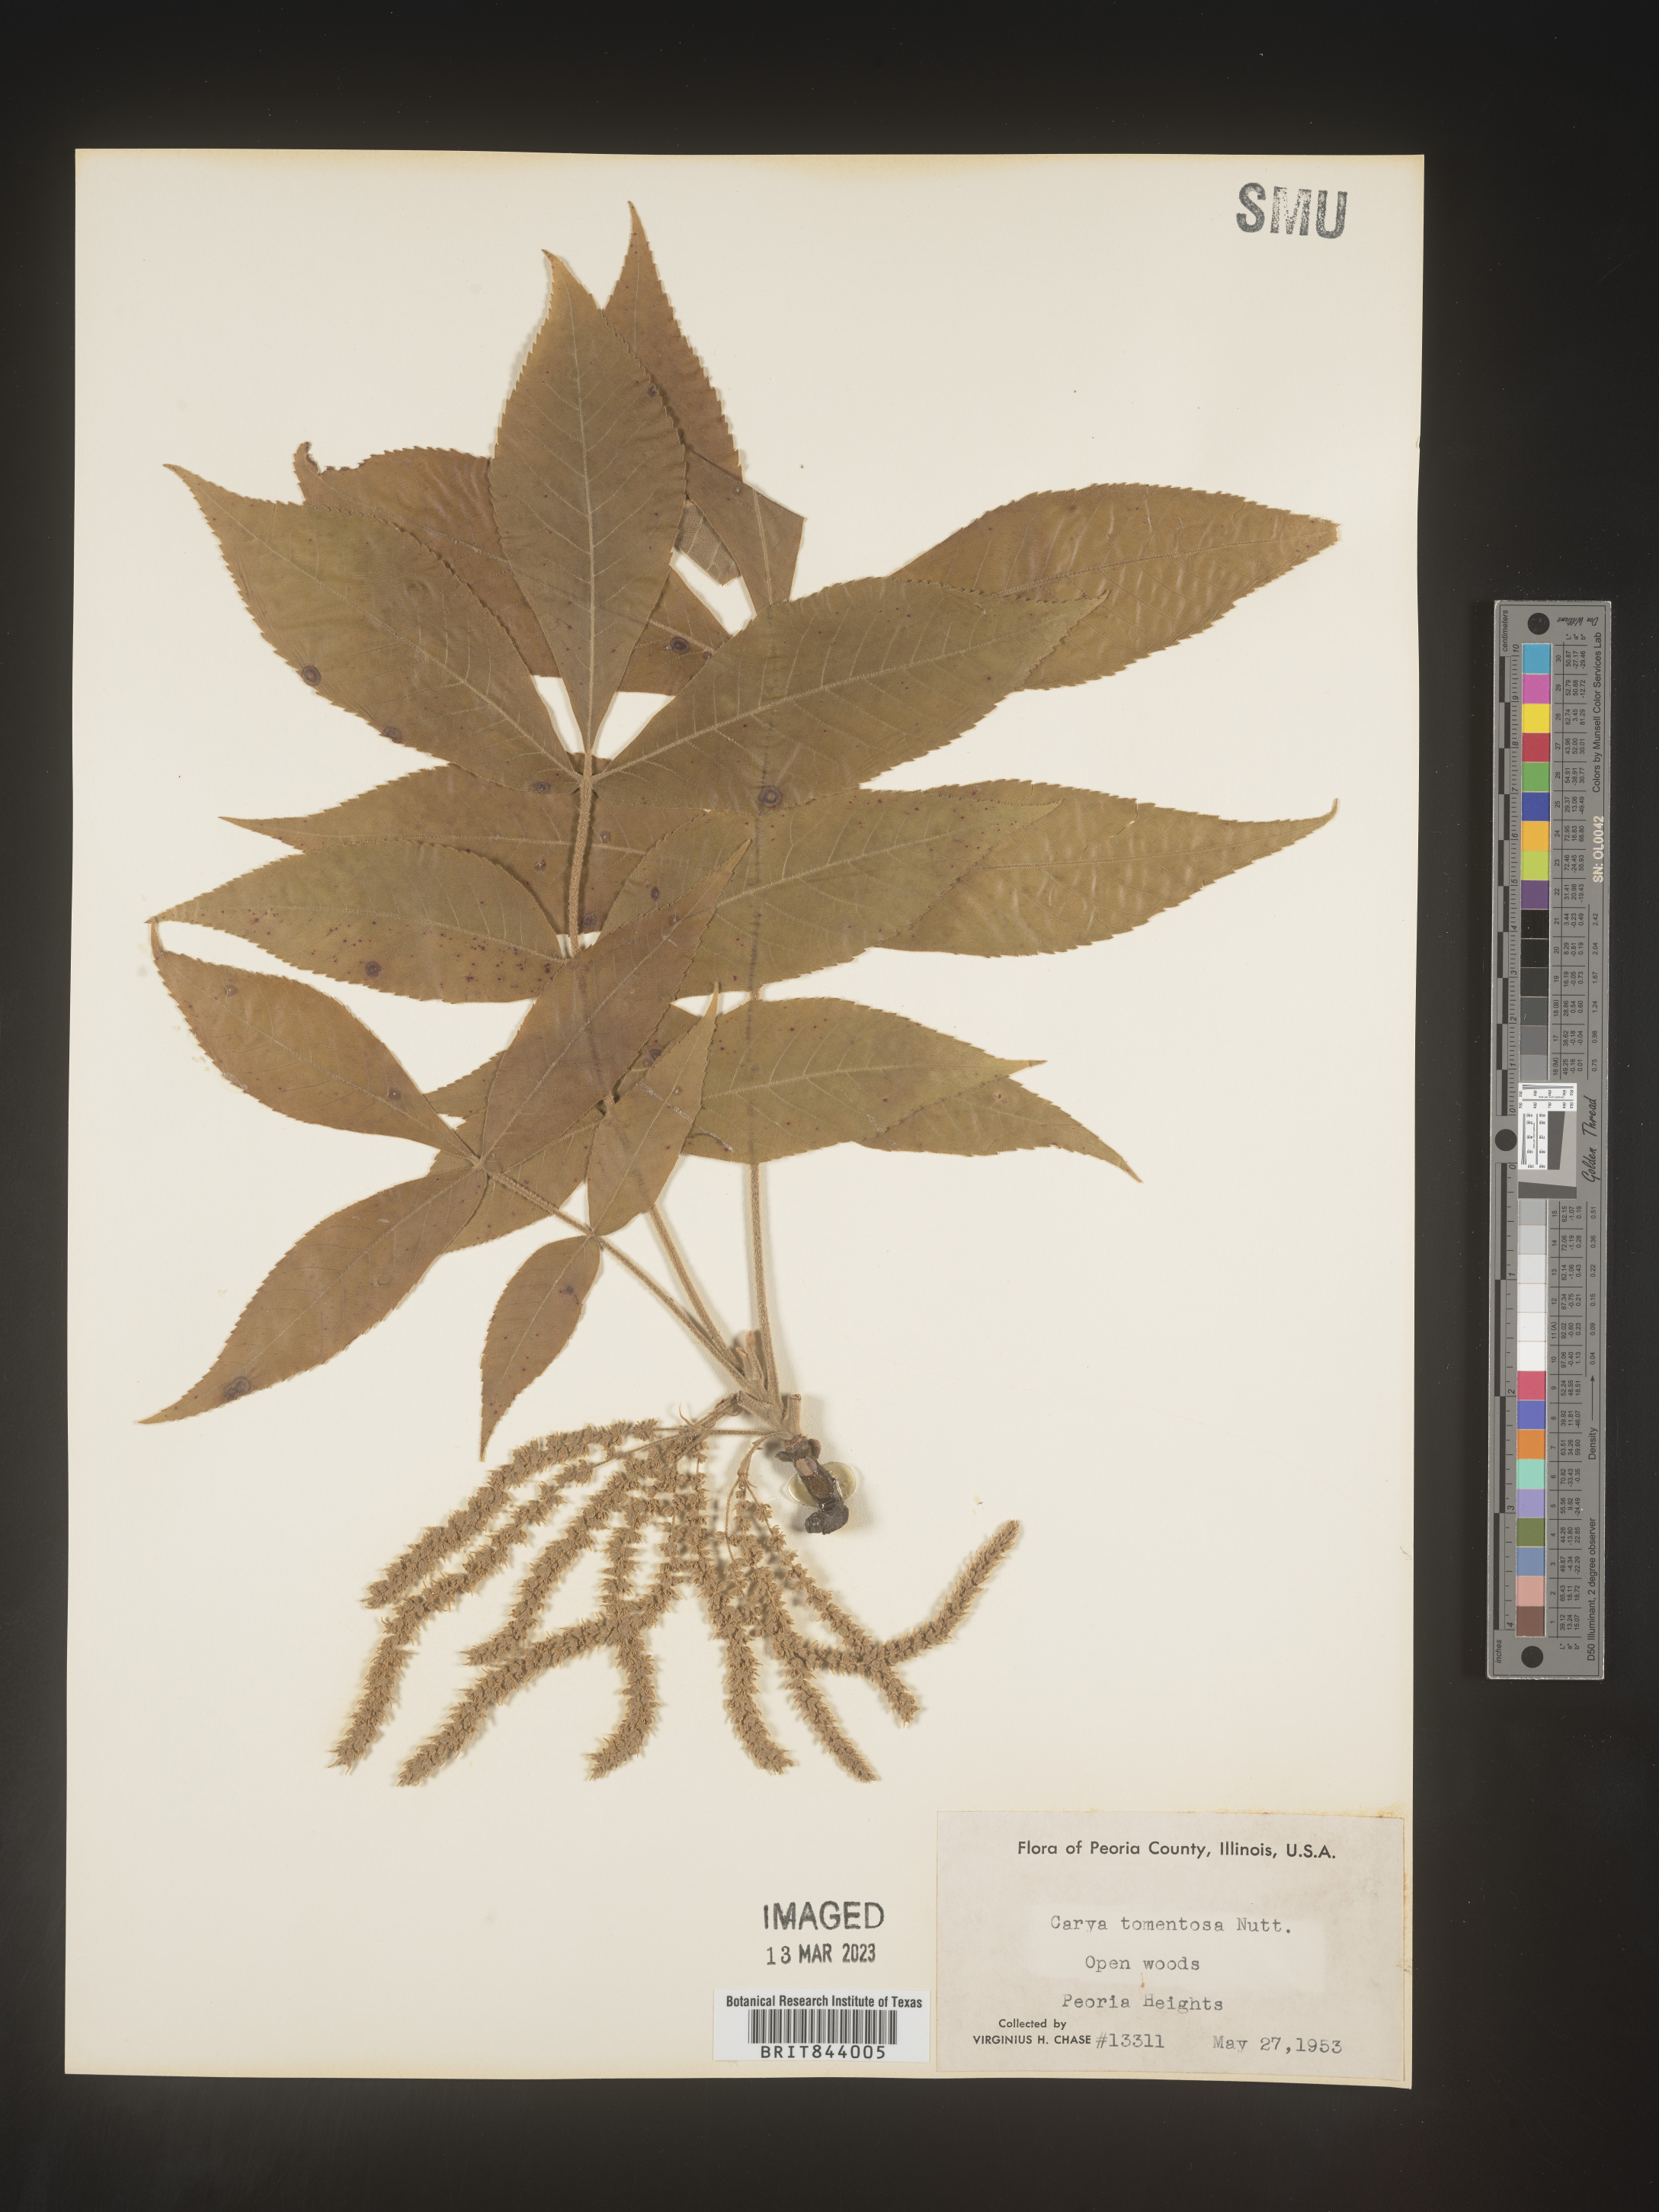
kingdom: Plantae
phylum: Tracheophyta
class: Magnoliopsida
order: Fagales
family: Juglandaceae
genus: Carya
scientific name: Carya alba
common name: Mockernut hickory
